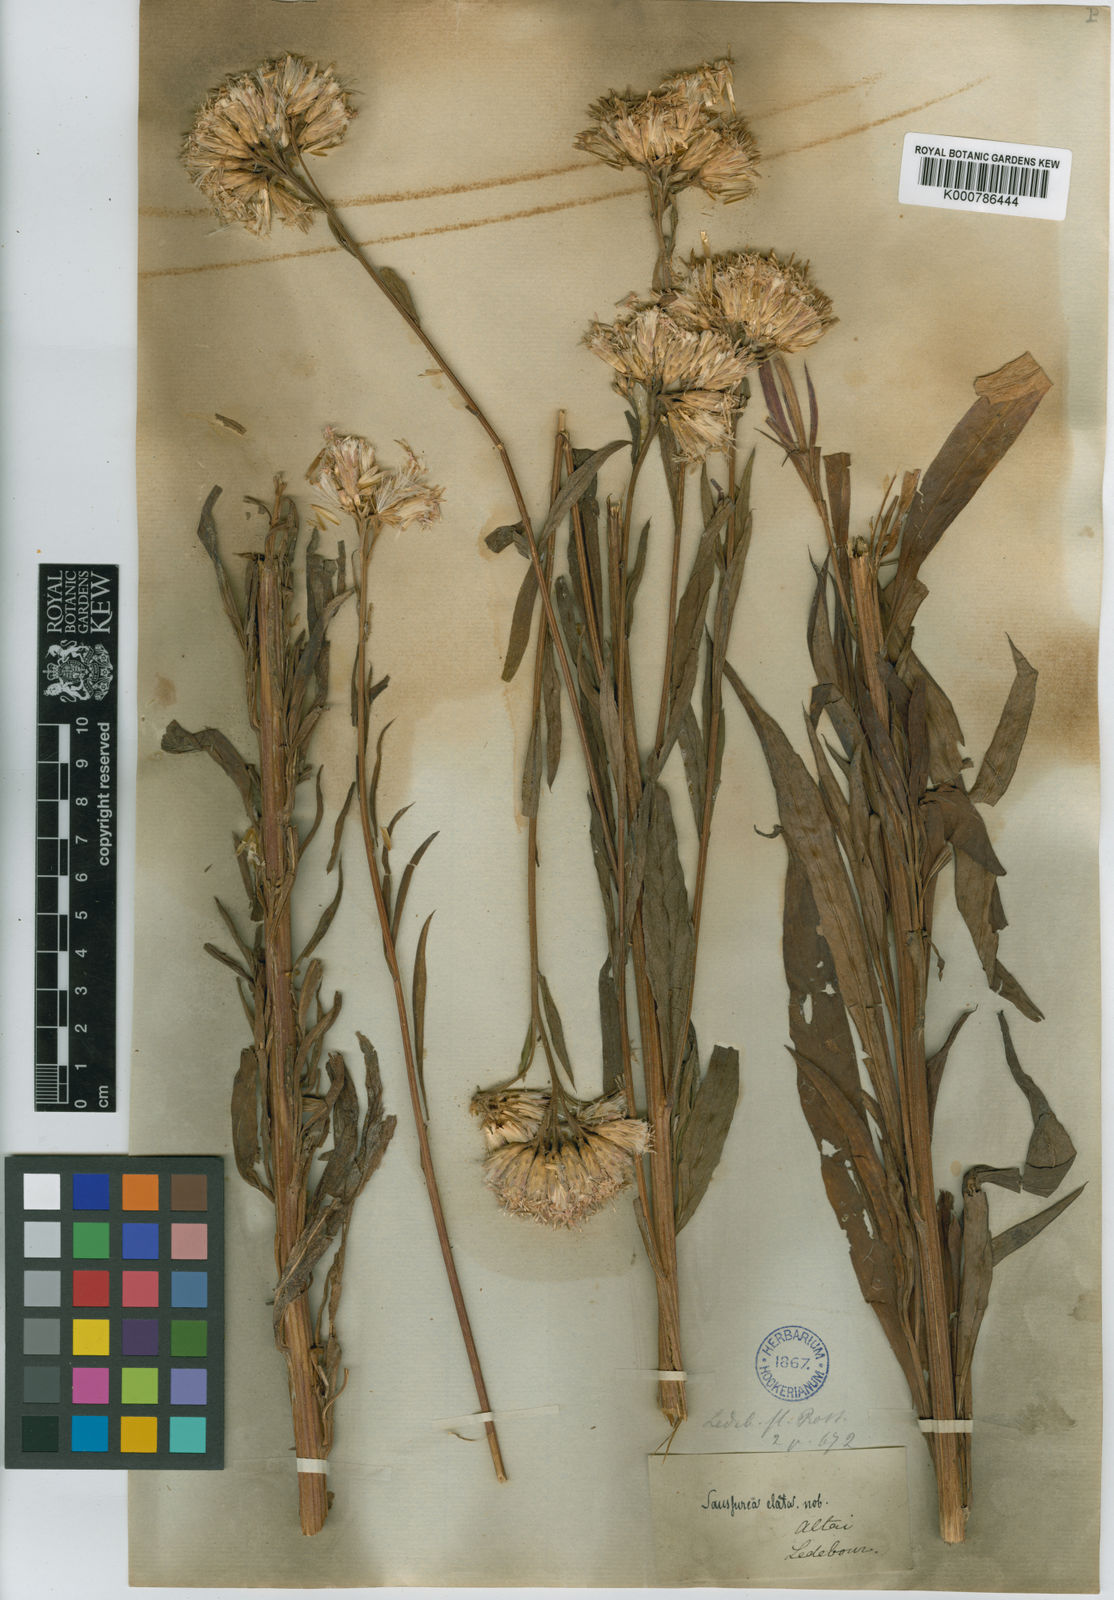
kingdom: Plantae
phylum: Tracheophyta
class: Magnoliopsida
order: Asterales
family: Asteraceae
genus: Saussurea
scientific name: Saussurea elata
